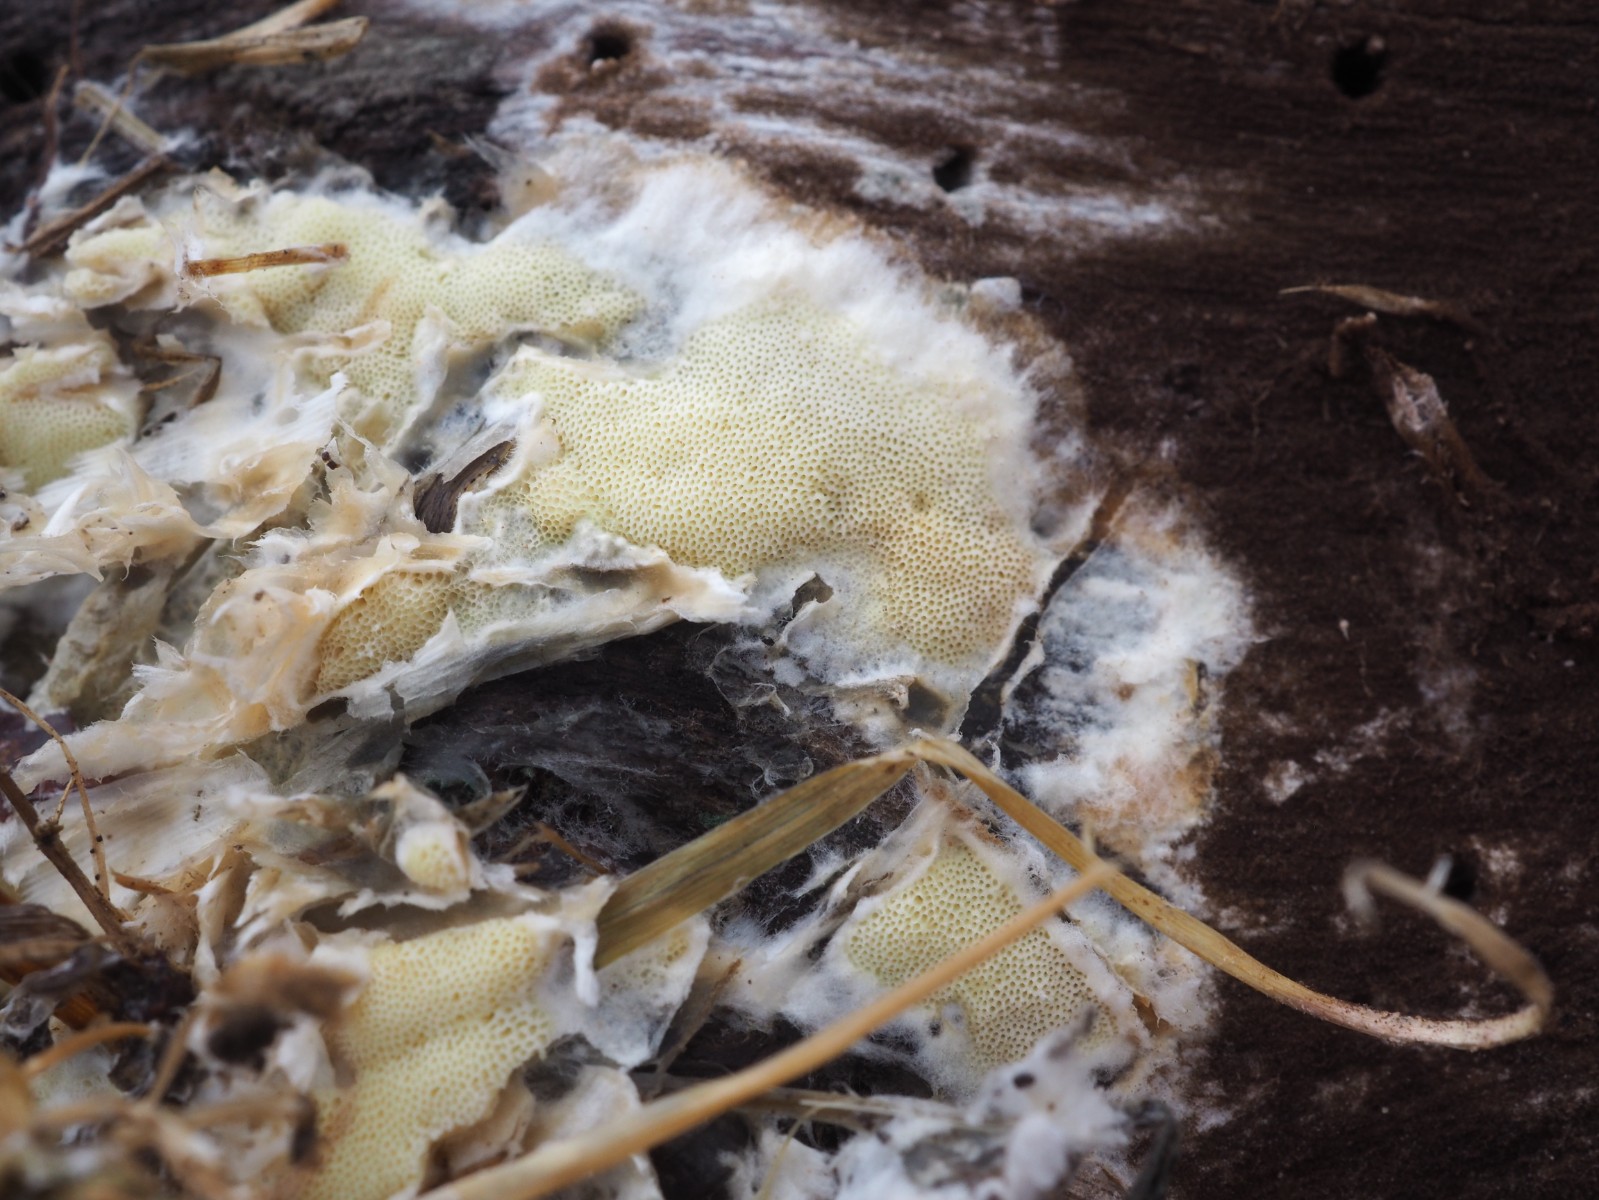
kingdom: Fungi
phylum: Basidiomycota
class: Agaricomycetes
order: Polyporales
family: Irpicaceae
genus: Gloeoporus
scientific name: Gloeoporus pannocinctus
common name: grøngul foldporesvamp
